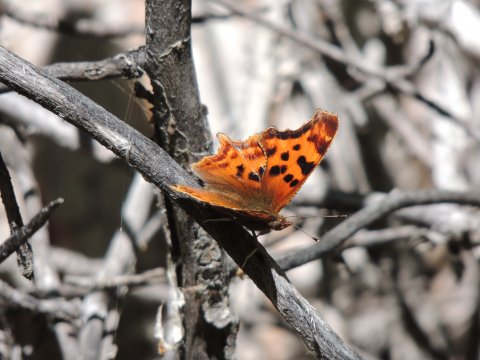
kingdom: Animalia
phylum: Arthropoda
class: Insecta
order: Lepidoptera
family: Nymphalidae
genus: Polygonia
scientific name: Polygonia satyrus
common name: Satyr Comma
